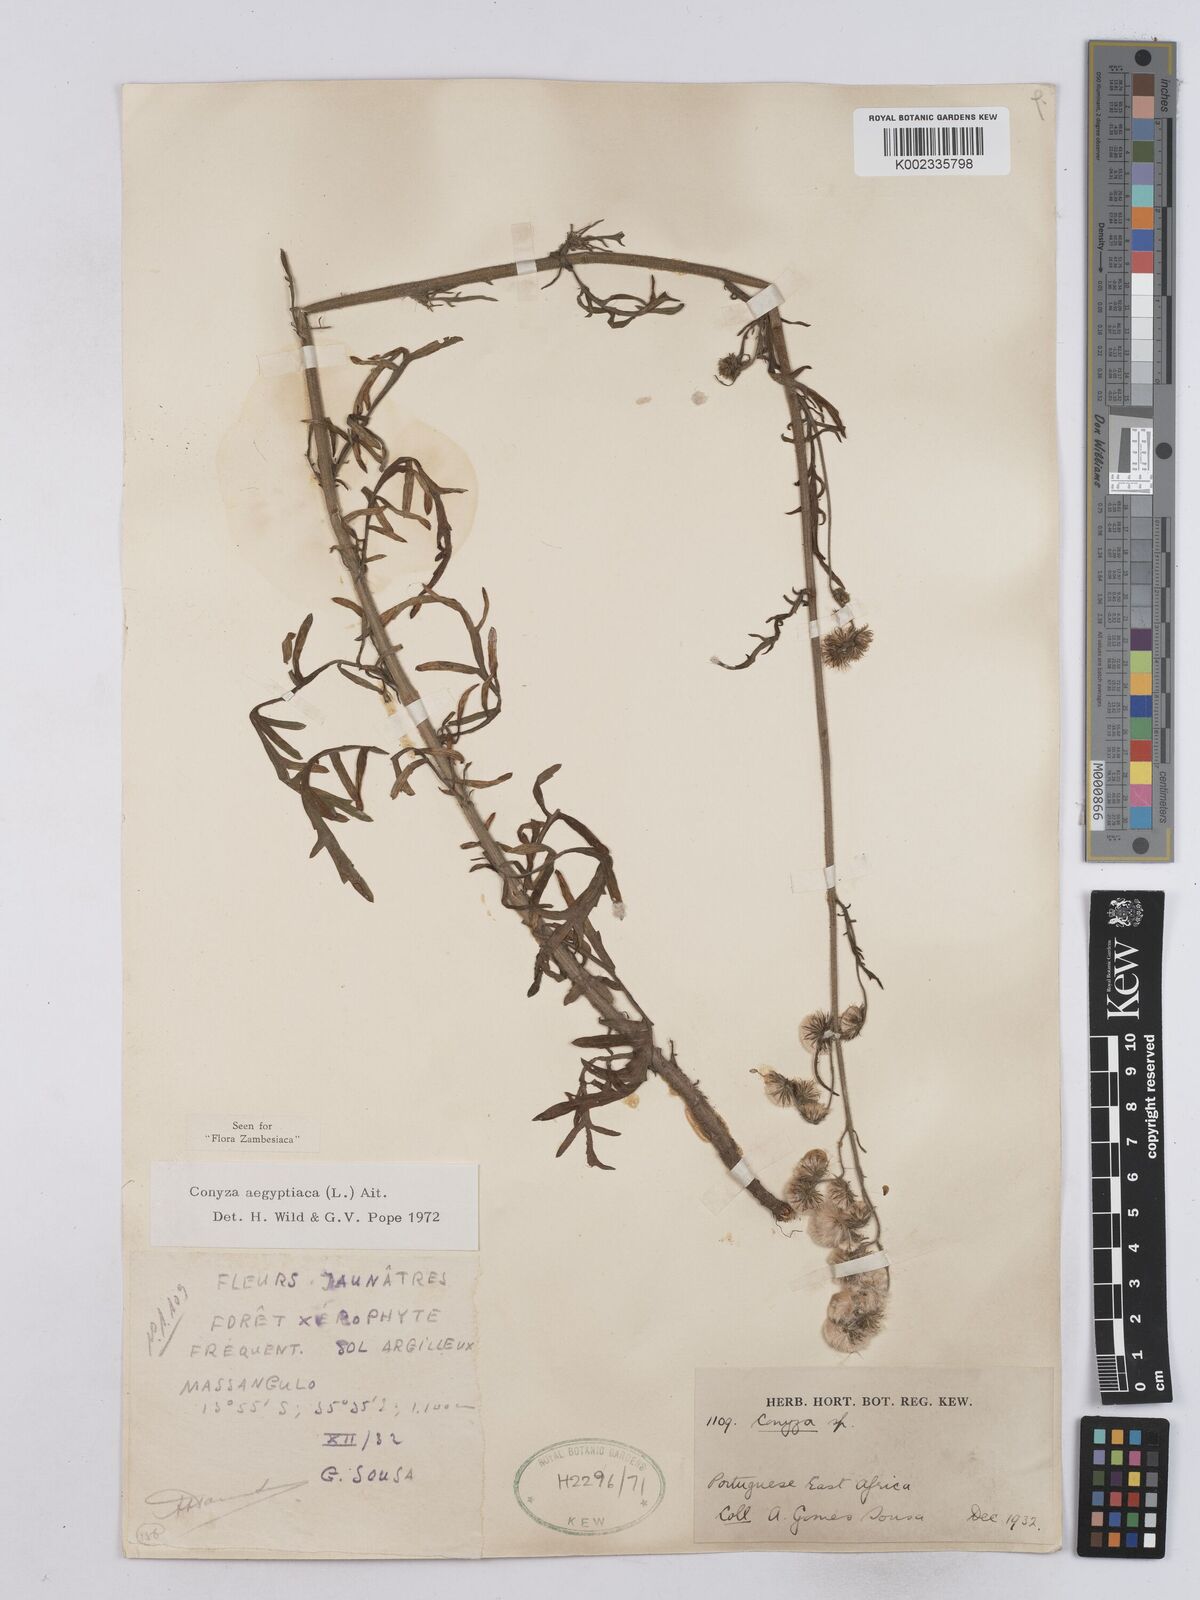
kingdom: Plantae
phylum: Tracheophyta
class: Magnoliopsida
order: Asterales
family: Asteraceae
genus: Nidorella
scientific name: Nidorella aegyptiaca
